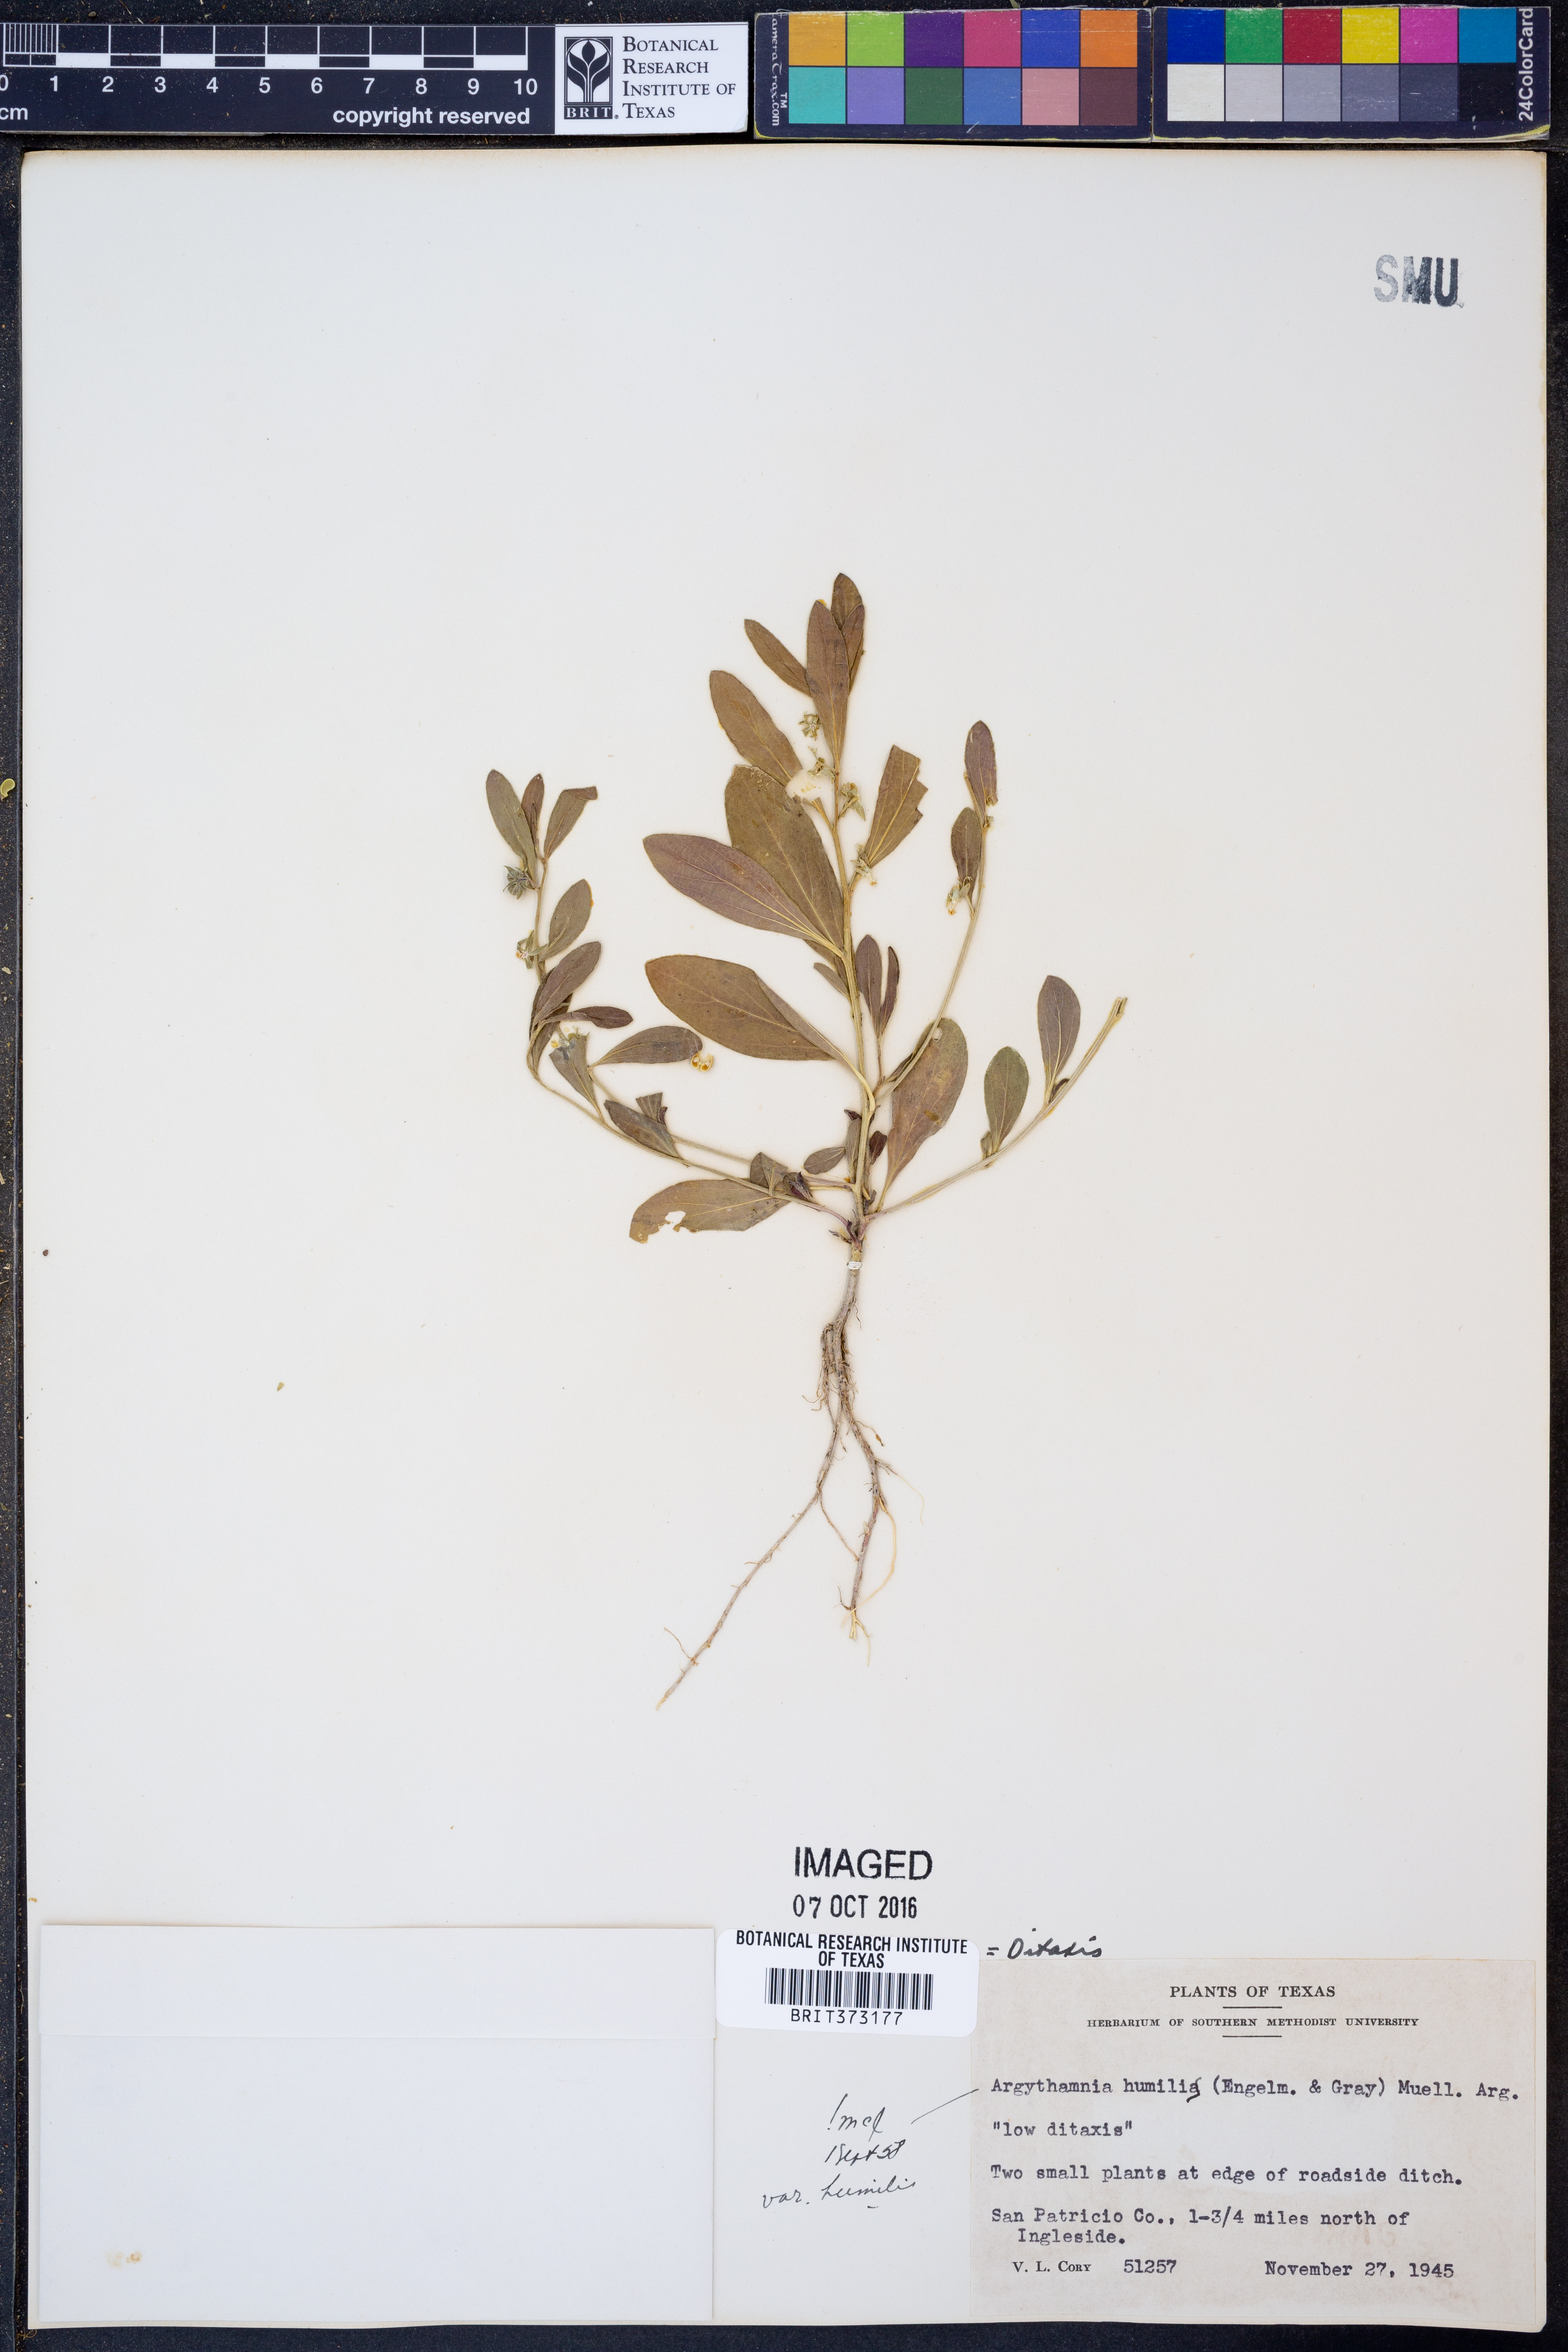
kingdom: Plantae
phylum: Tracheophyta
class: Magnoliopsida
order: Malpighiales
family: Euphorbiaceae
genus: Ditaxis
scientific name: Ditaxis humilis
